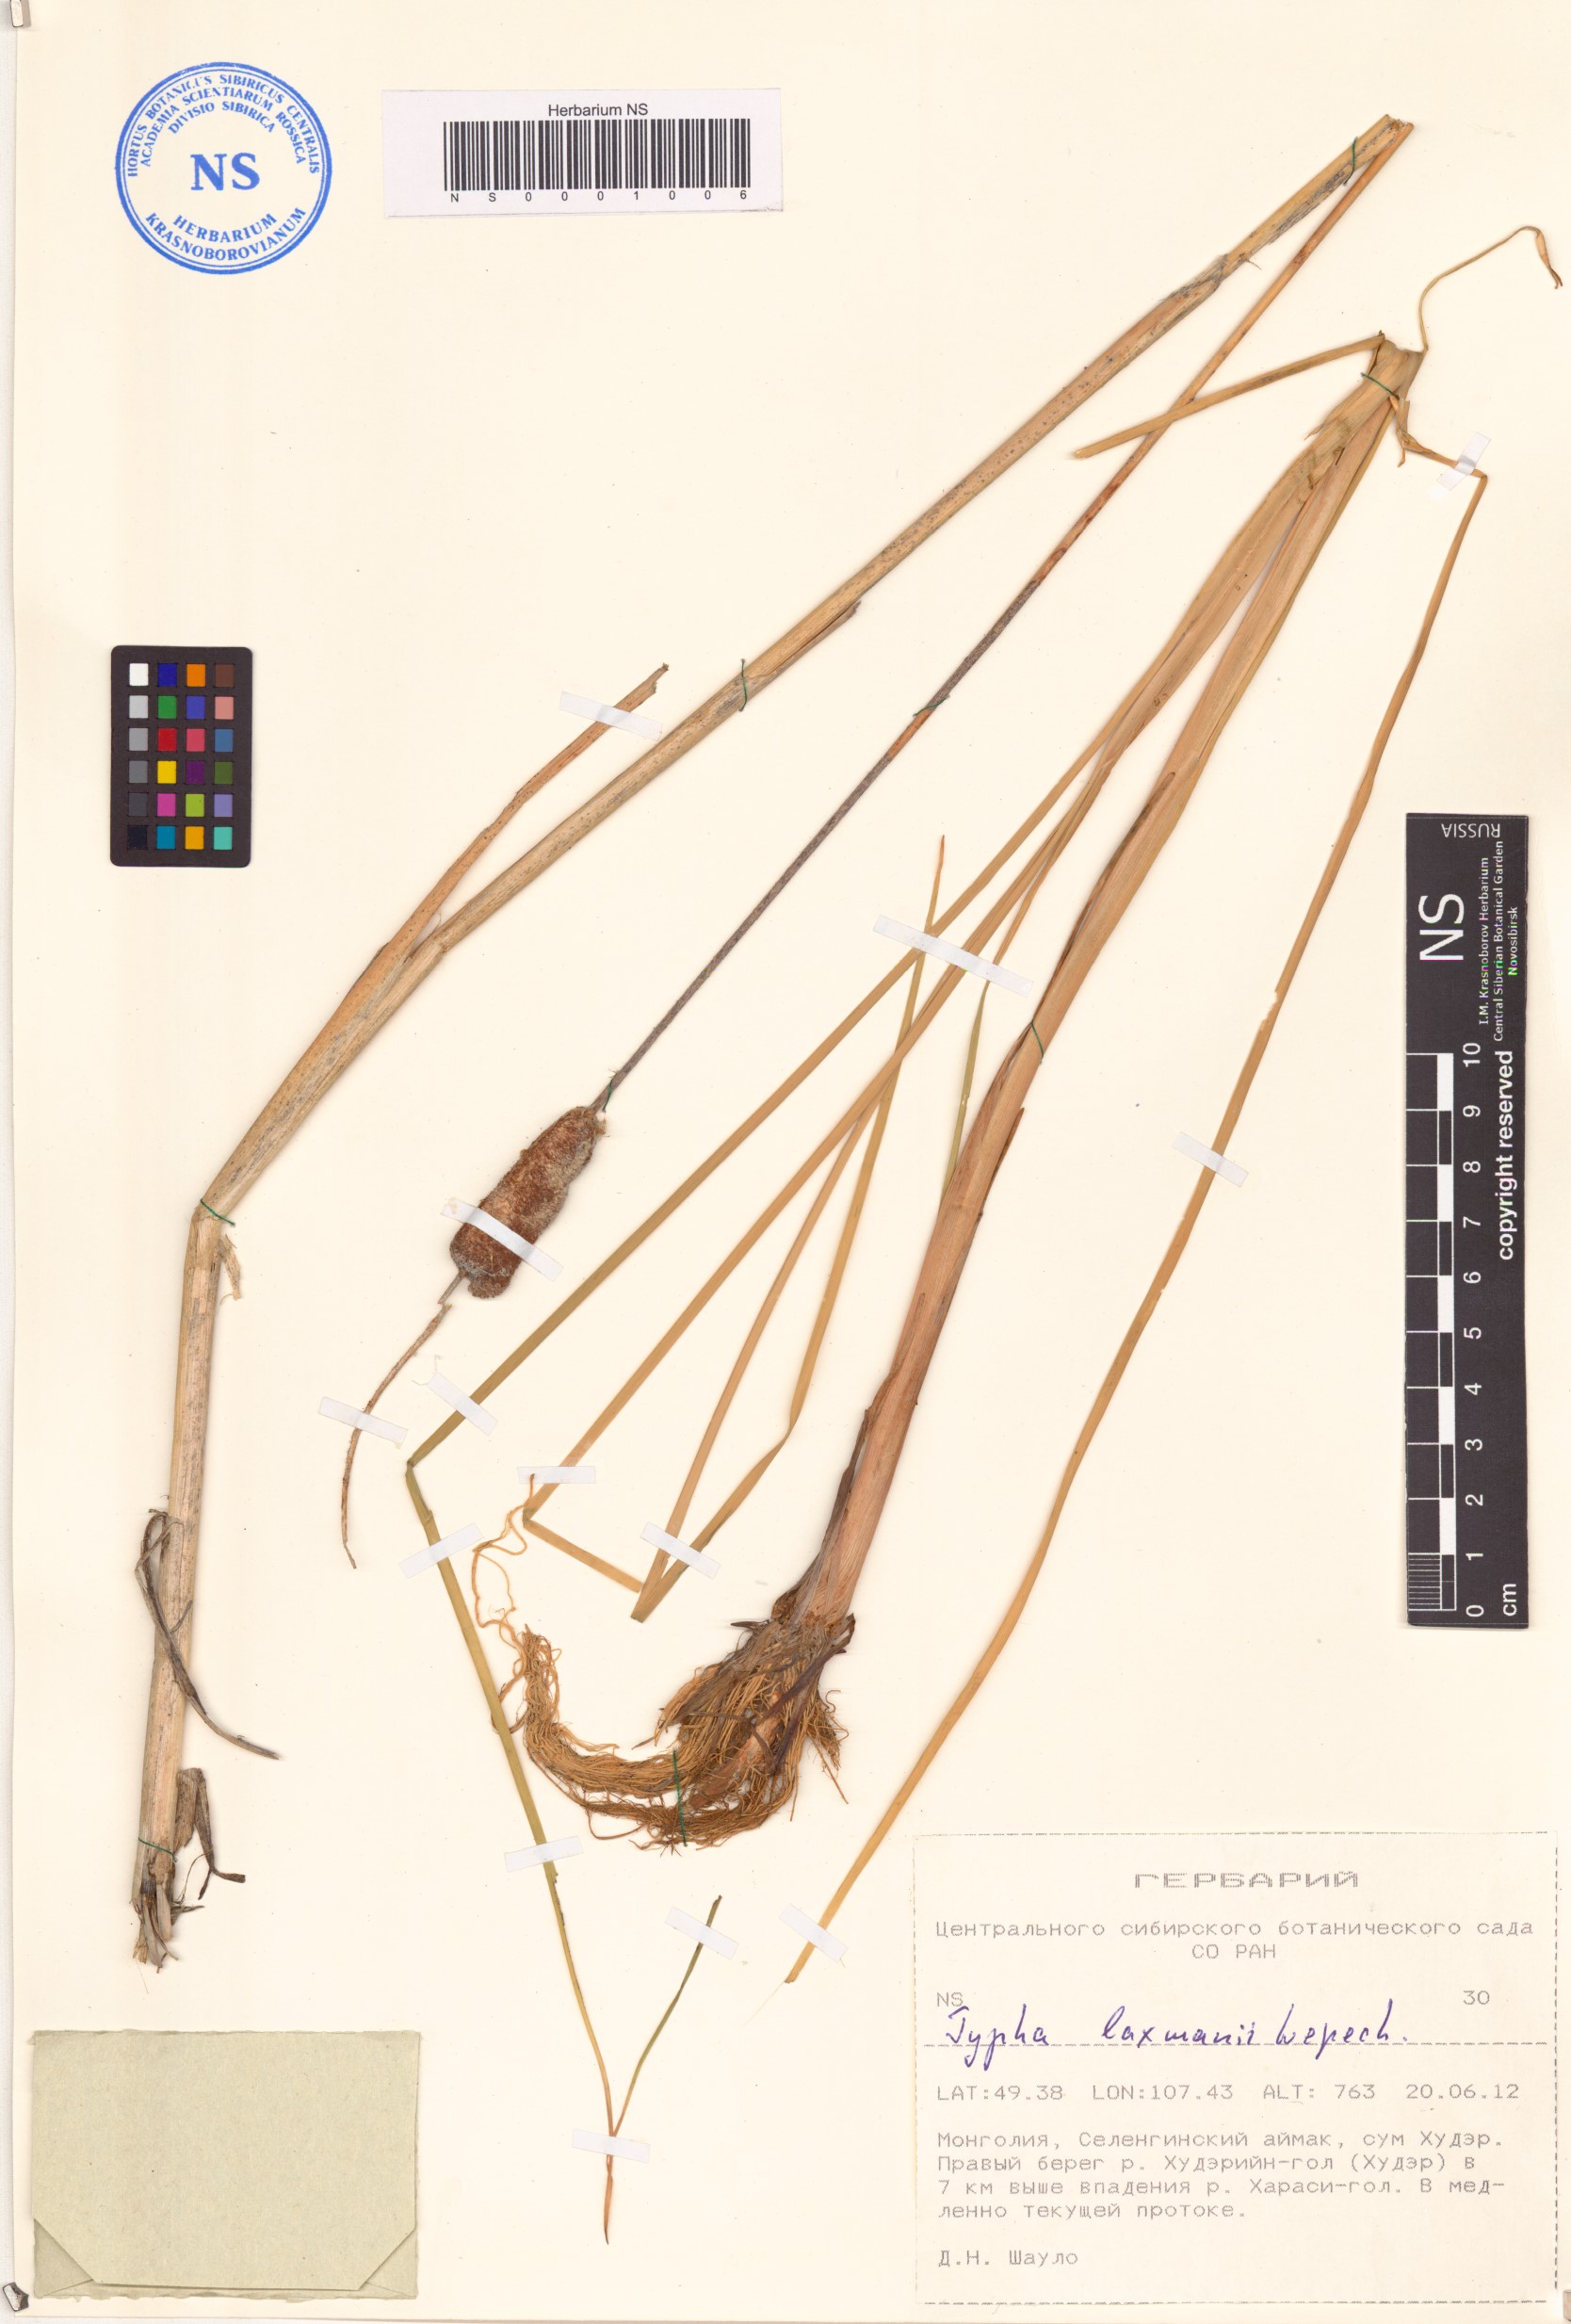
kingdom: Plantae
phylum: Tracheophyta
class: Liliopsida
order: Poales
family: Typhaceae
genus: Typha
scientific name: Typha laxmannii
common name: Laxman’s bulrush
